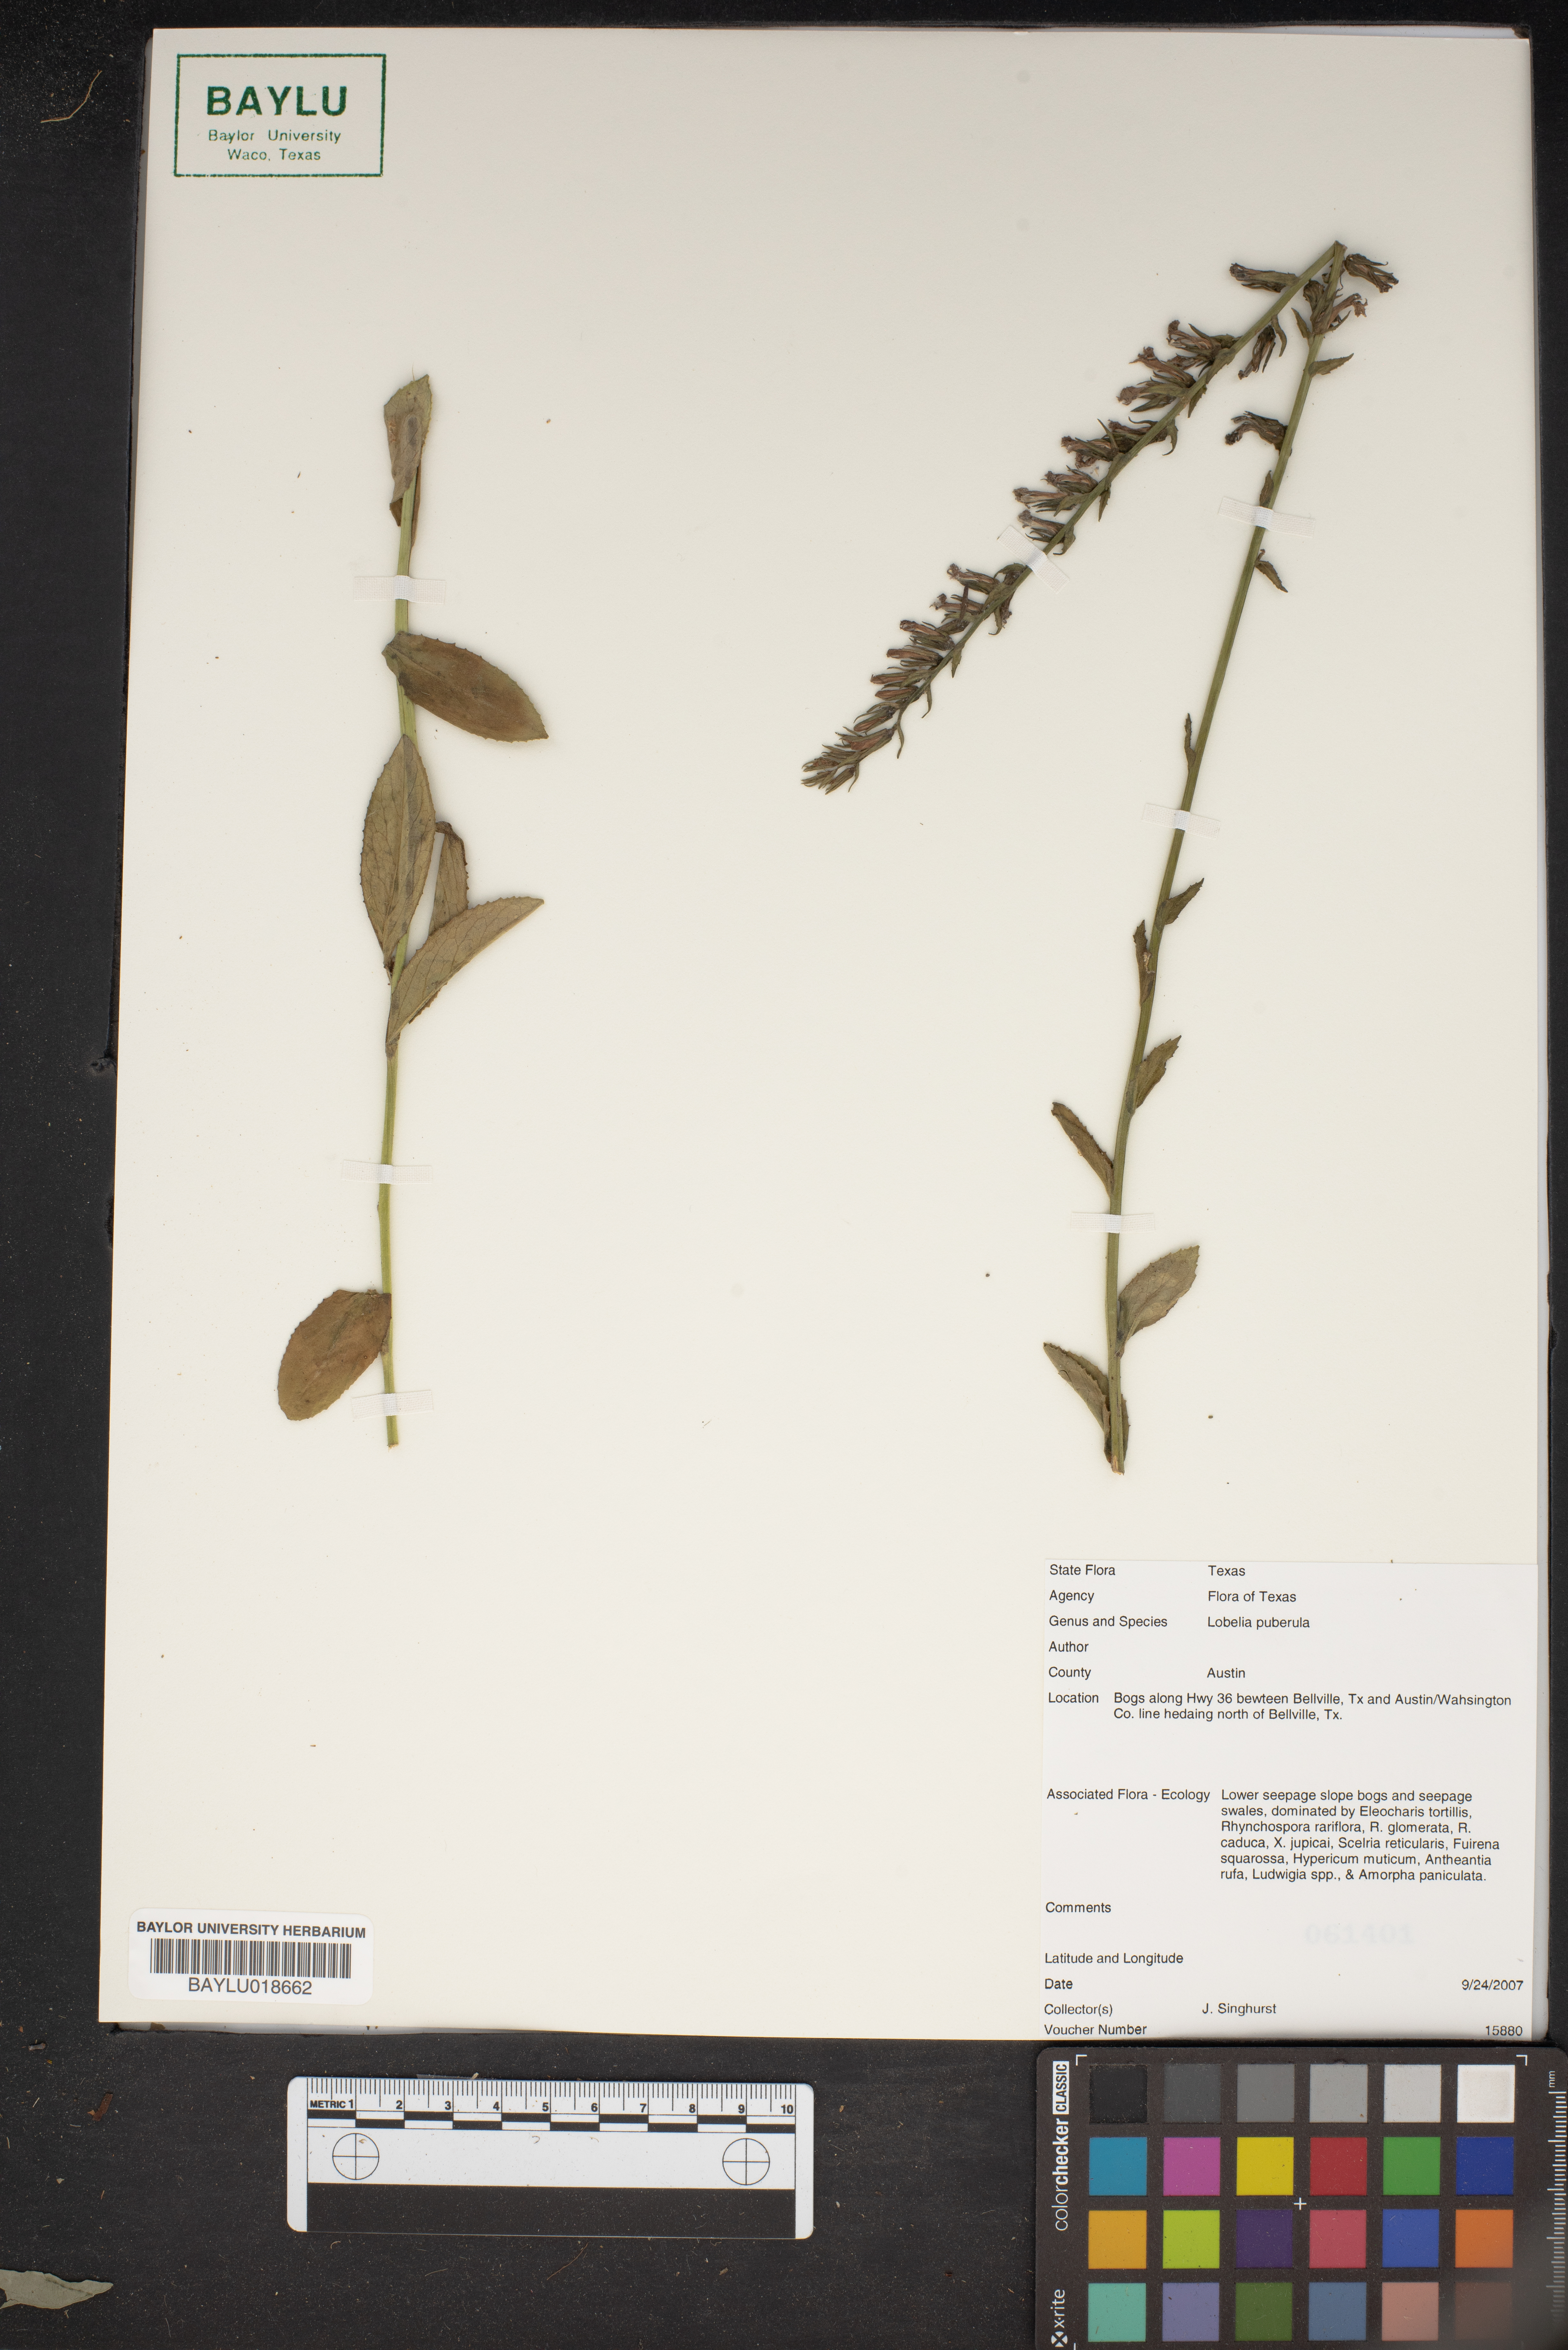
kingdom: Plantae
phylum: Tracheophyta
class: Magnoliopsida
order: Asterales
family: Campanulaceae
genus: Lobelia
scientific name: Lobelia puberula
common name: Purple dewdrop
